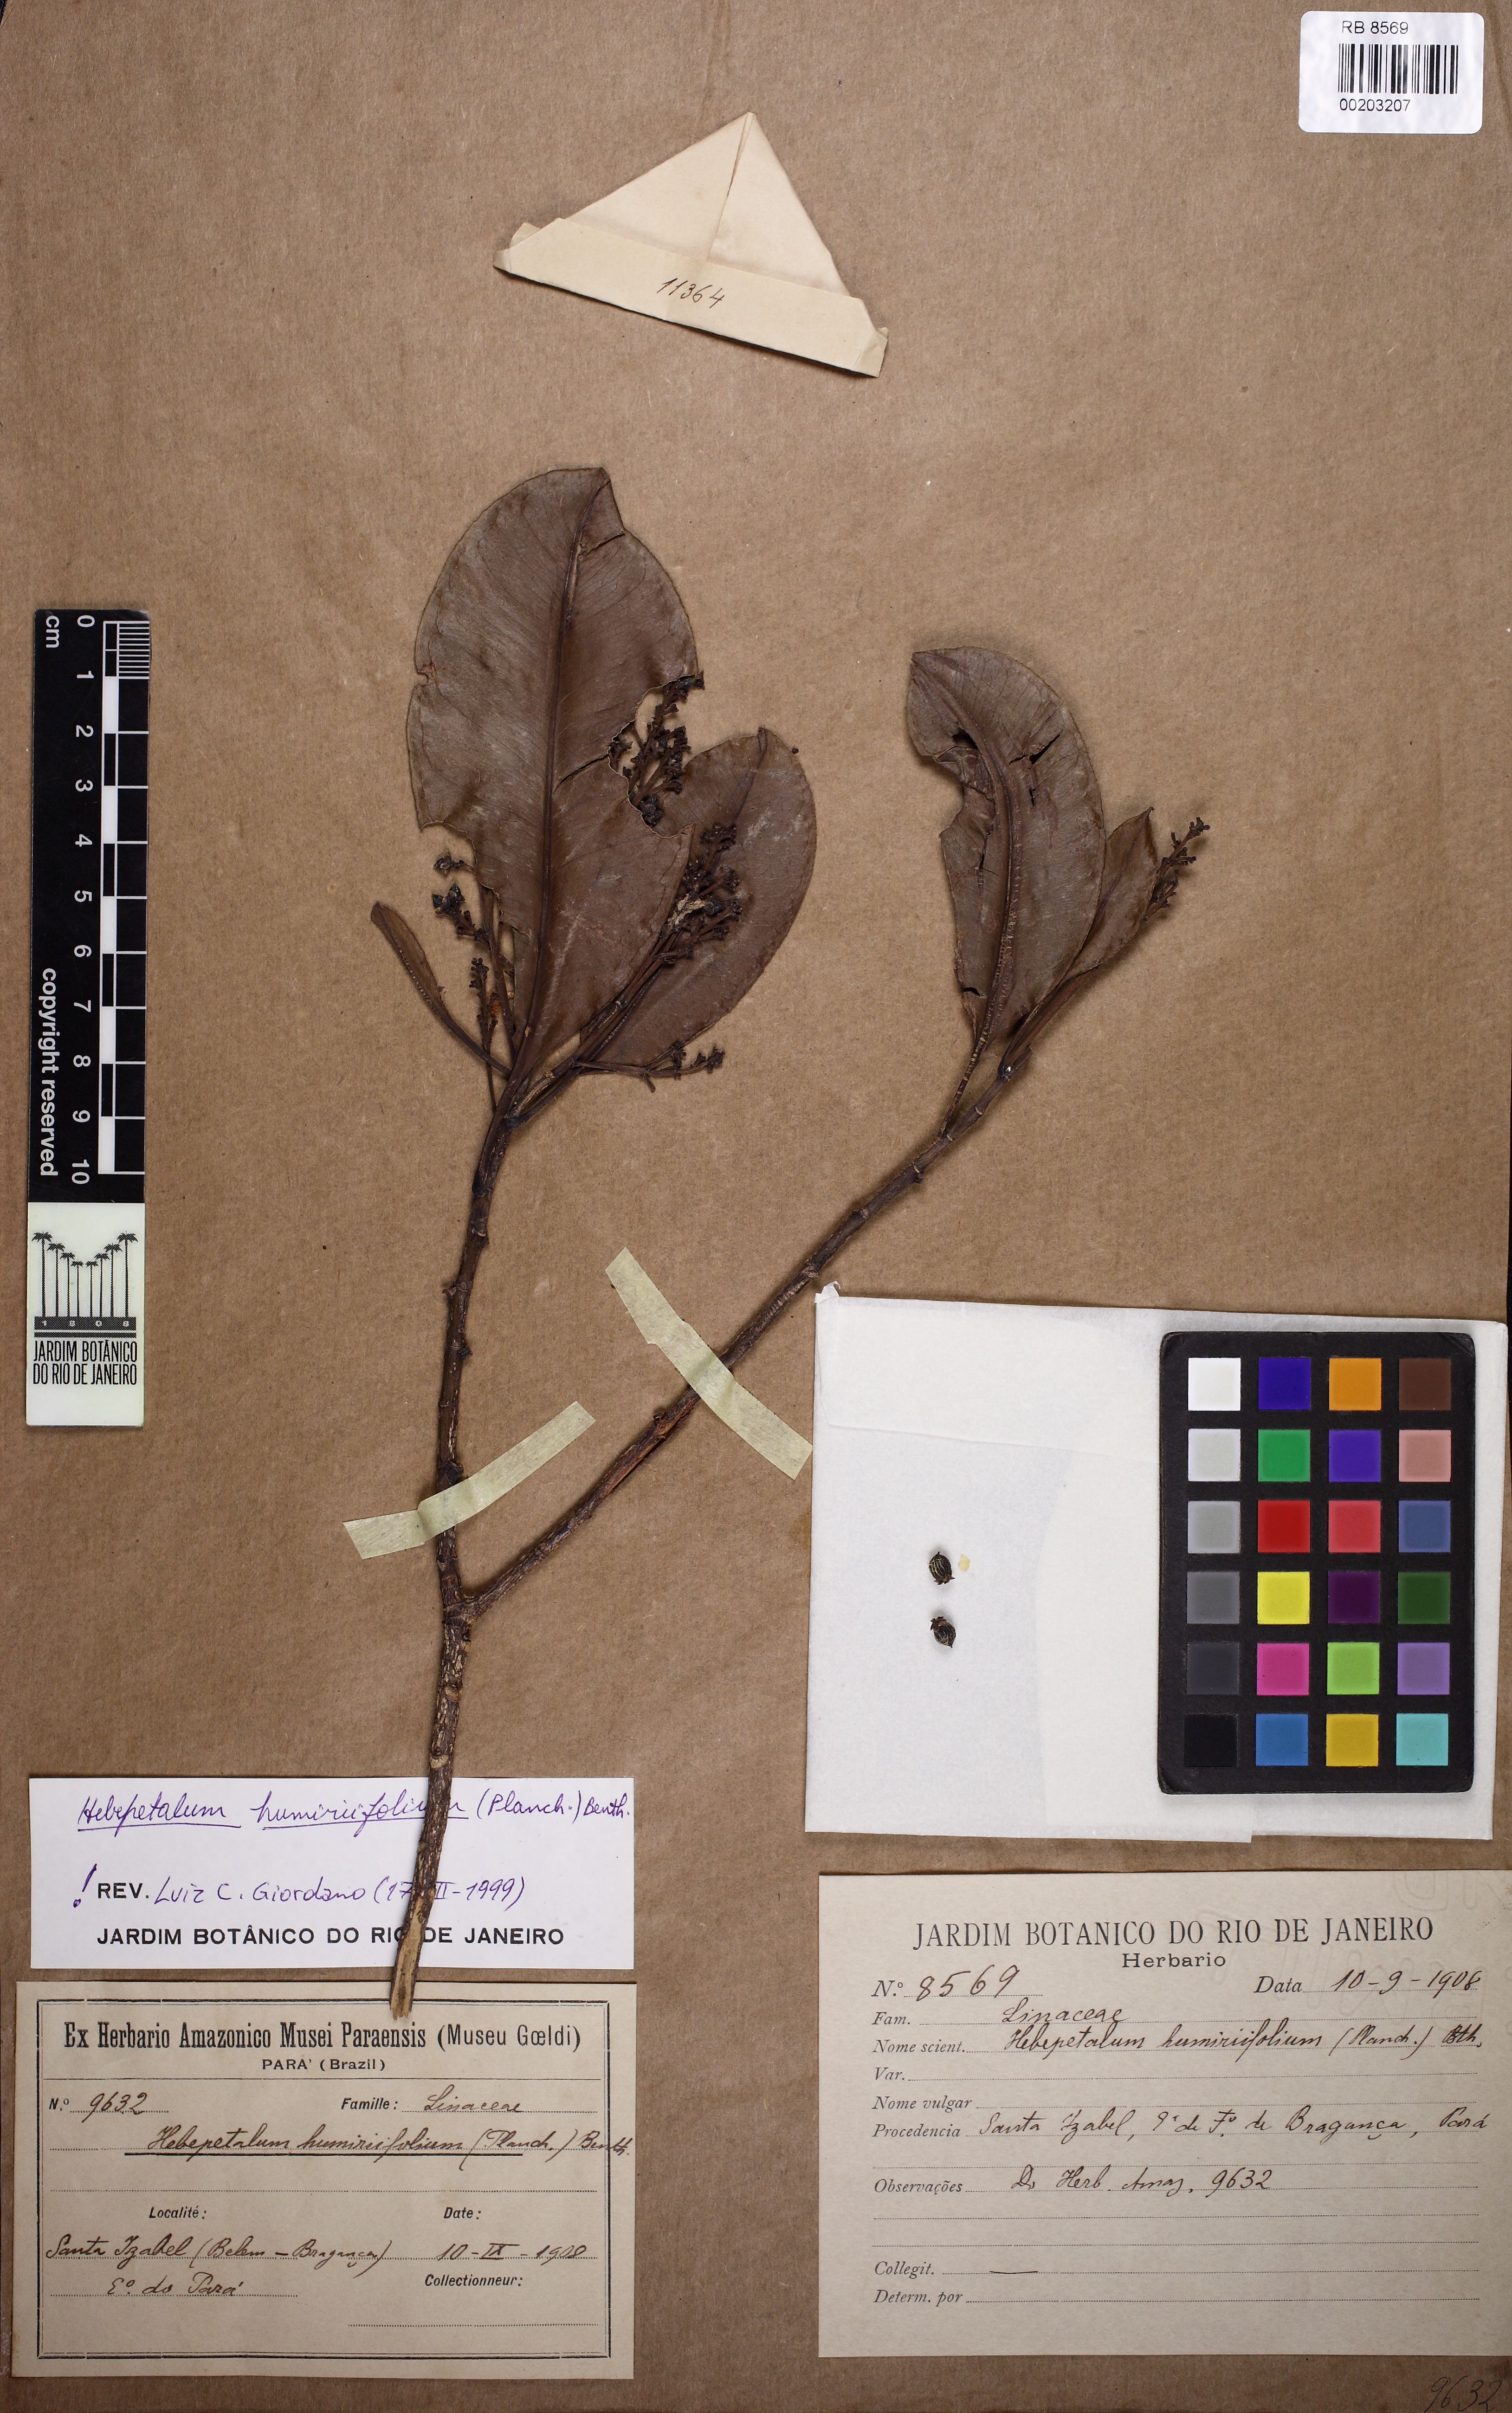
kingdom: Plantae
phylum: Tracheophyta
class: Magnoliopsida
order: Malpighiales
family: Linaceae
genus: Hebepetalum
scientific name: Hebepetalum humiriifolium
